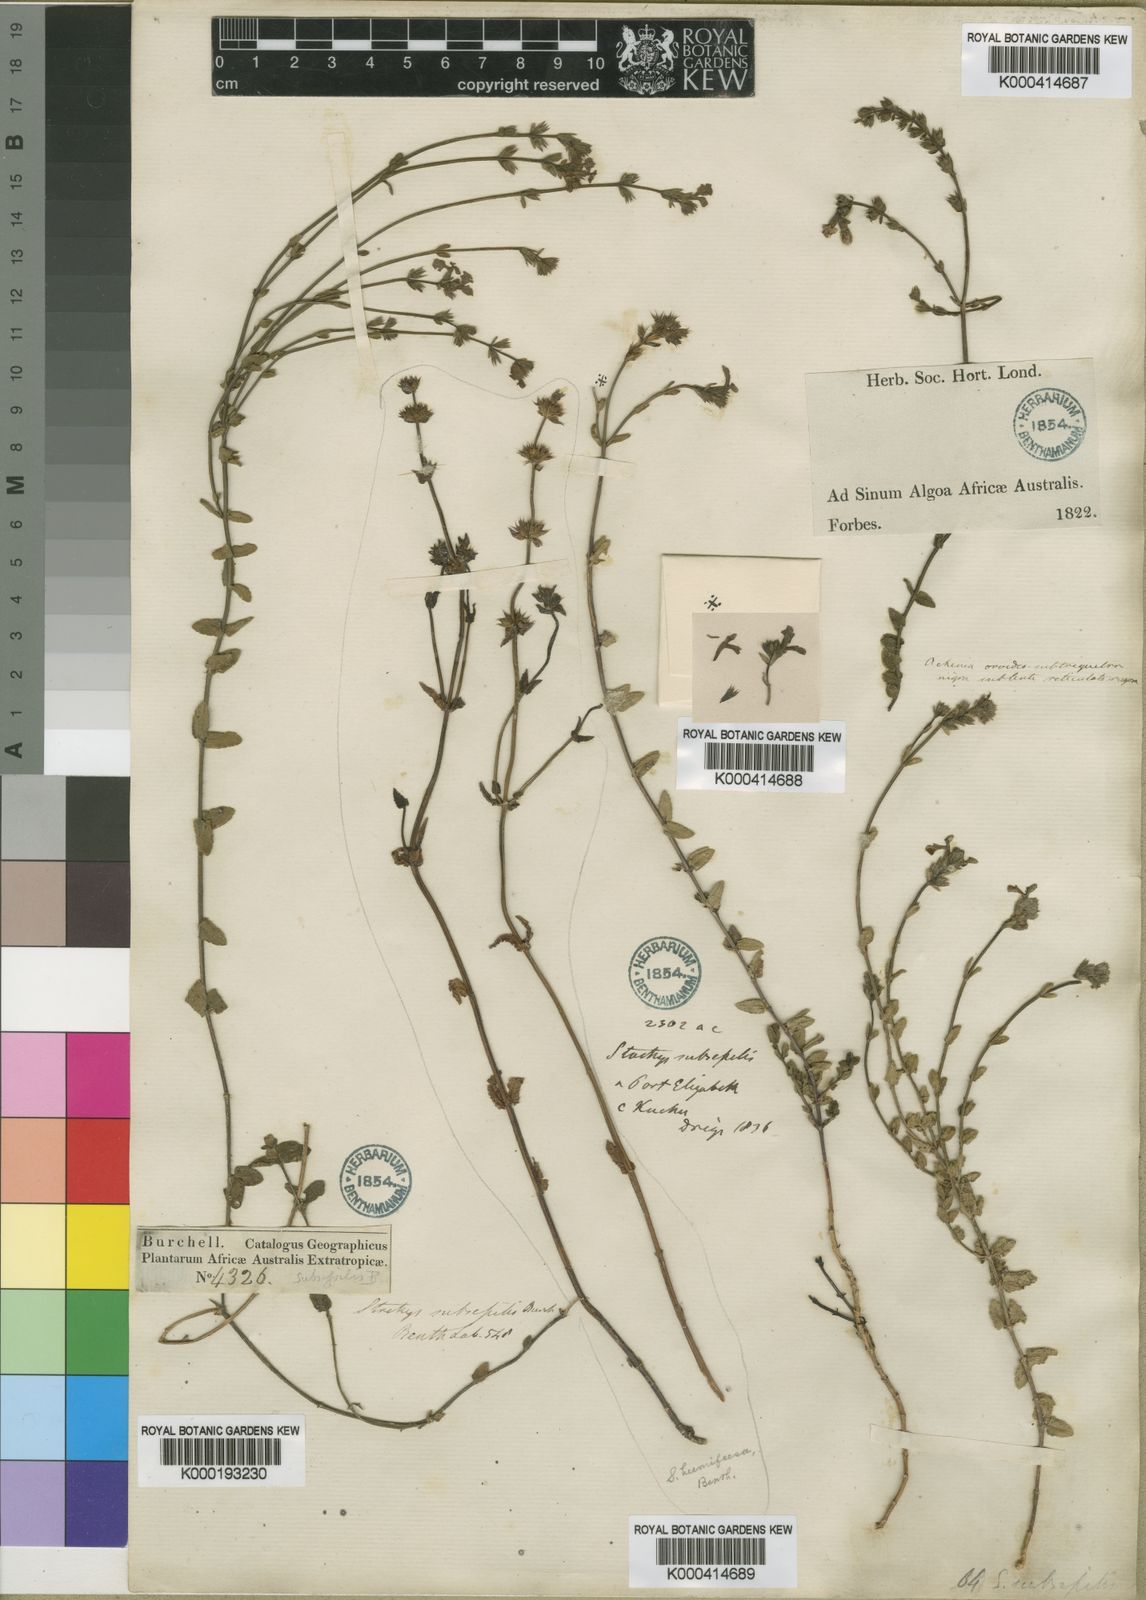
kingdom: Plantae
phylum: Tracheophyta
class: Magnoliopsida
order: Lamiales
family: Lamiaceae
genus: Stachys
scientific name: Stachys humifusa
